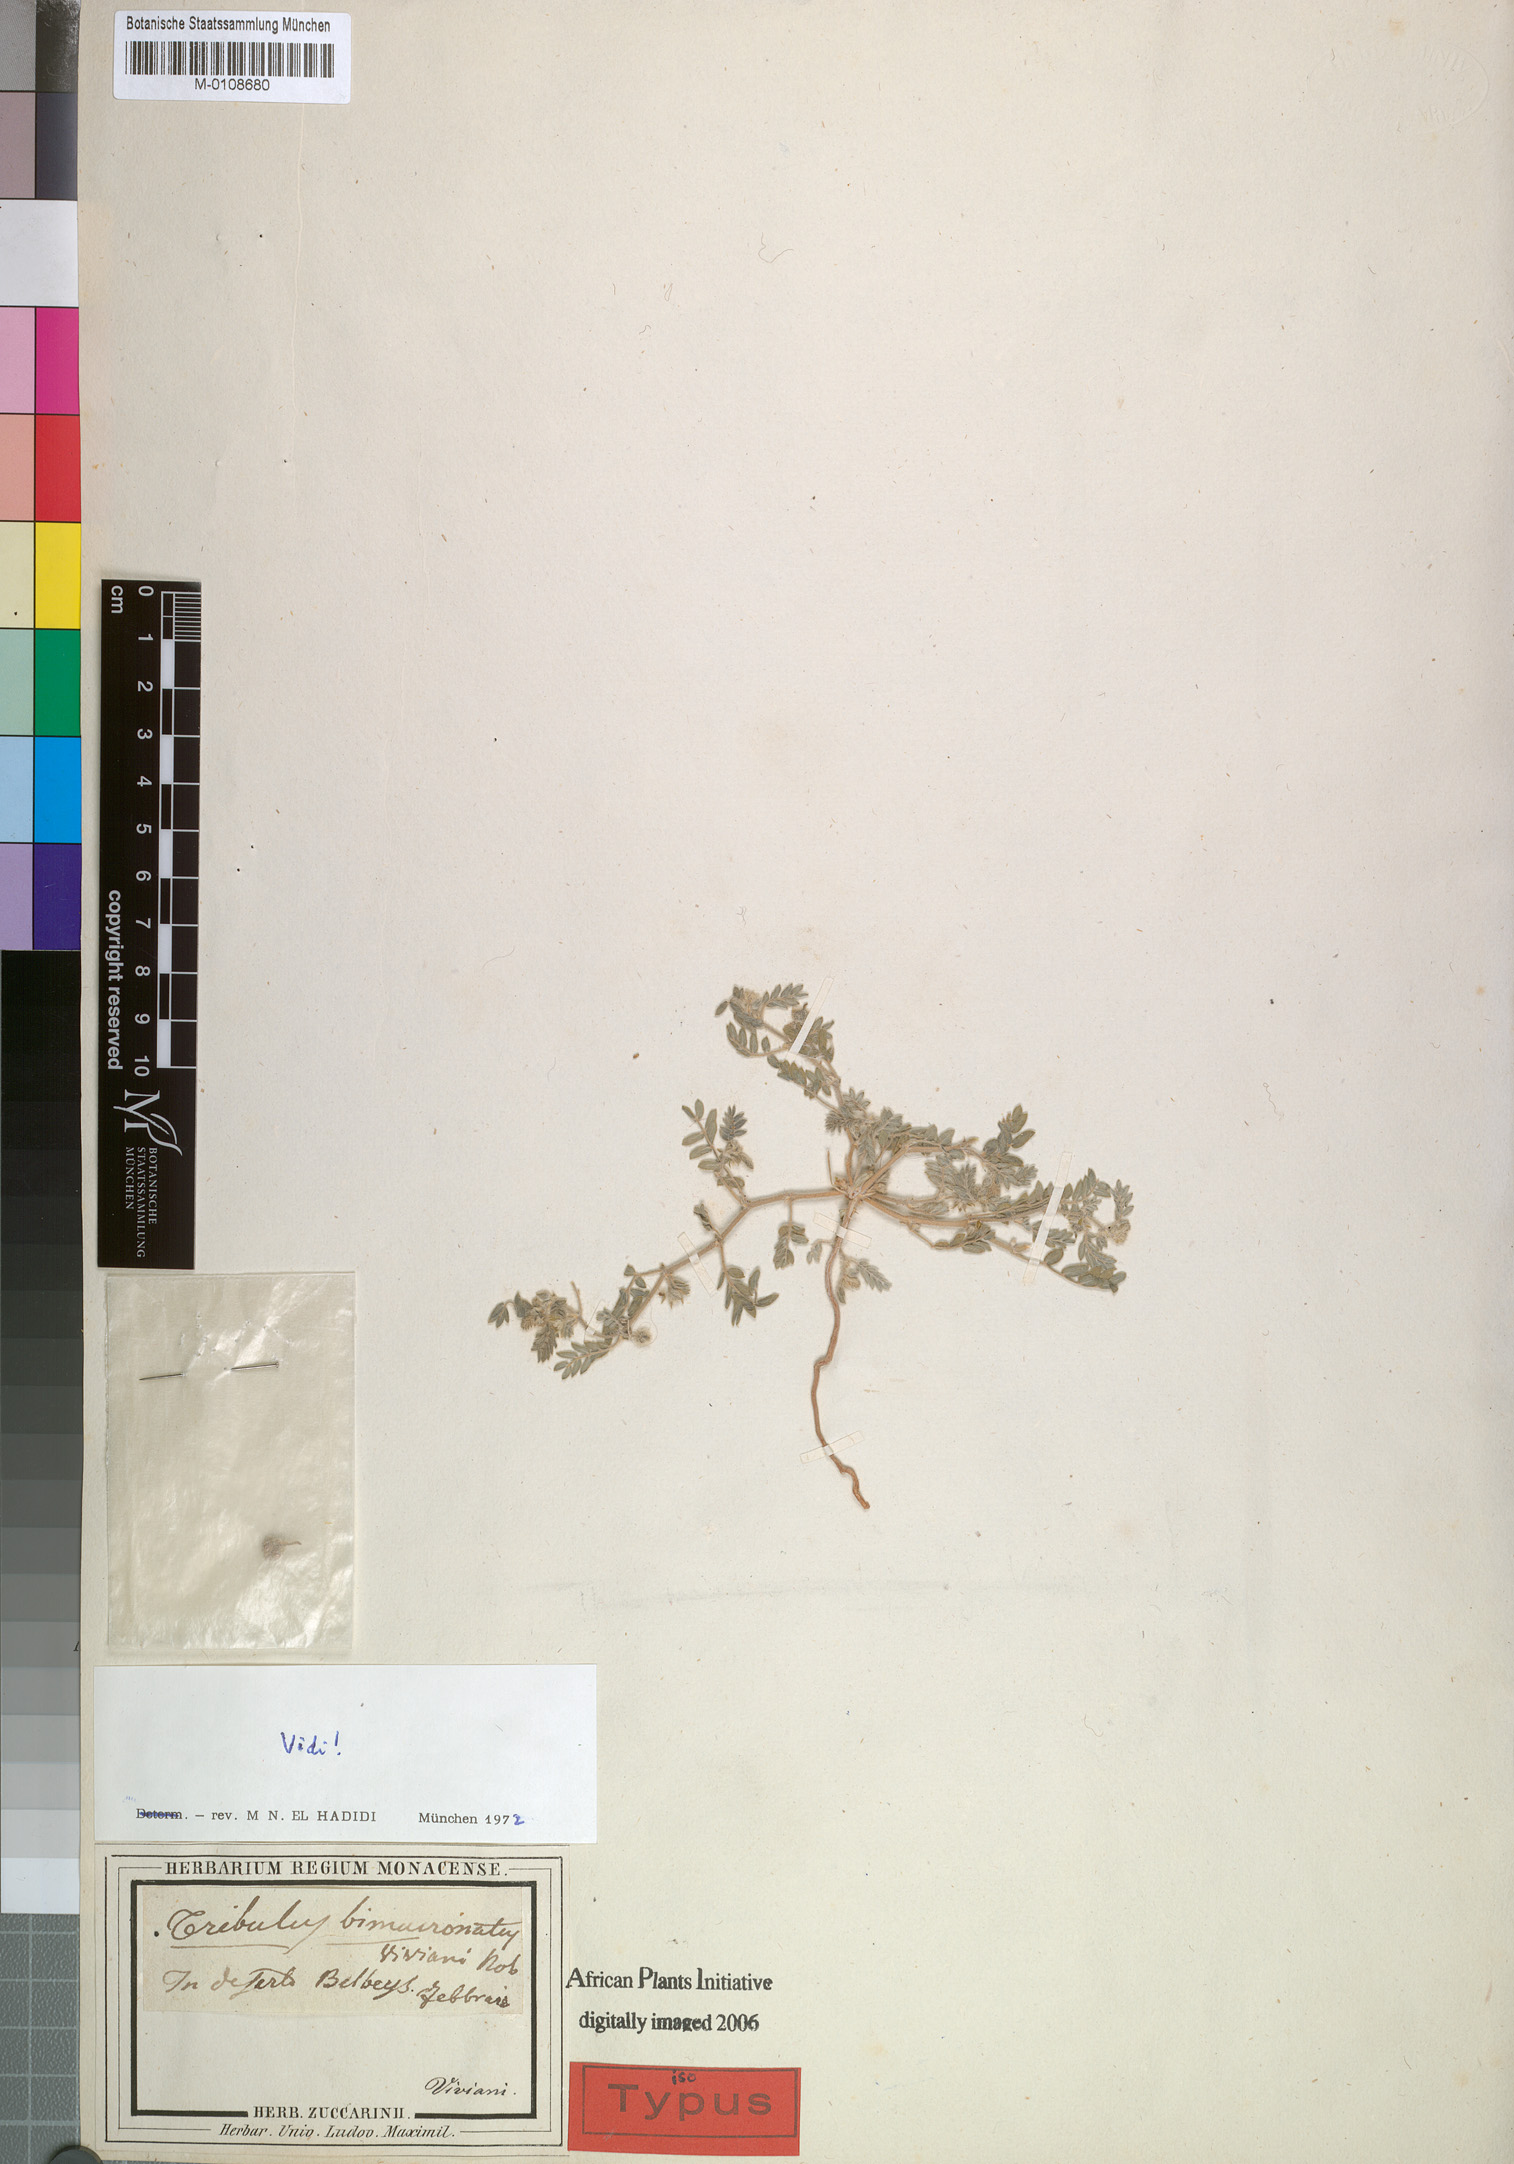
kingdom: Plantae
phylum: Tracheophyta
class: Magnoliopsida
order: Zygophyllales
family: Zygophyllaceae
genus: Tribulus
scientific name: Tribulus bimucronatus
